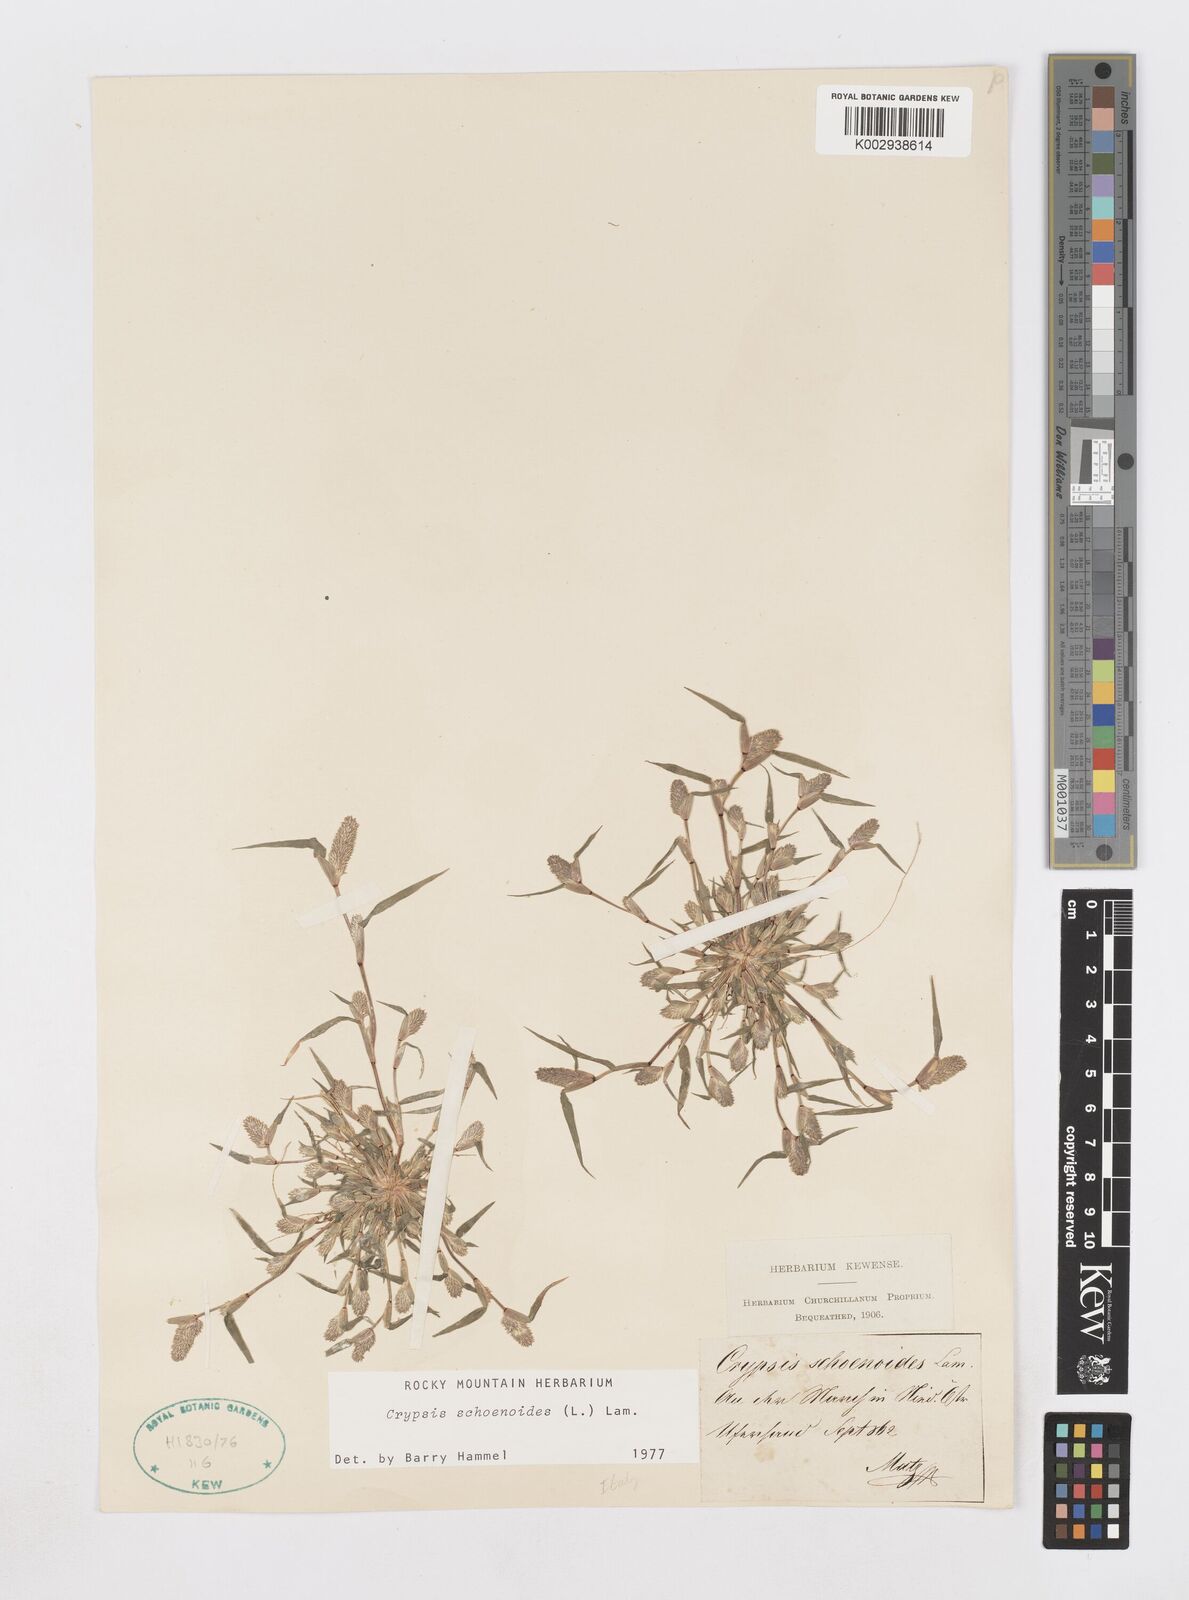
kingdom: Plantae
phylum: Tracheophyta
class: Liliopsida
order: Poales
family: Poaceae
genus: Sporobolus
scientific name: Sporobolus schoenoides
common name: Rush-like timothy
